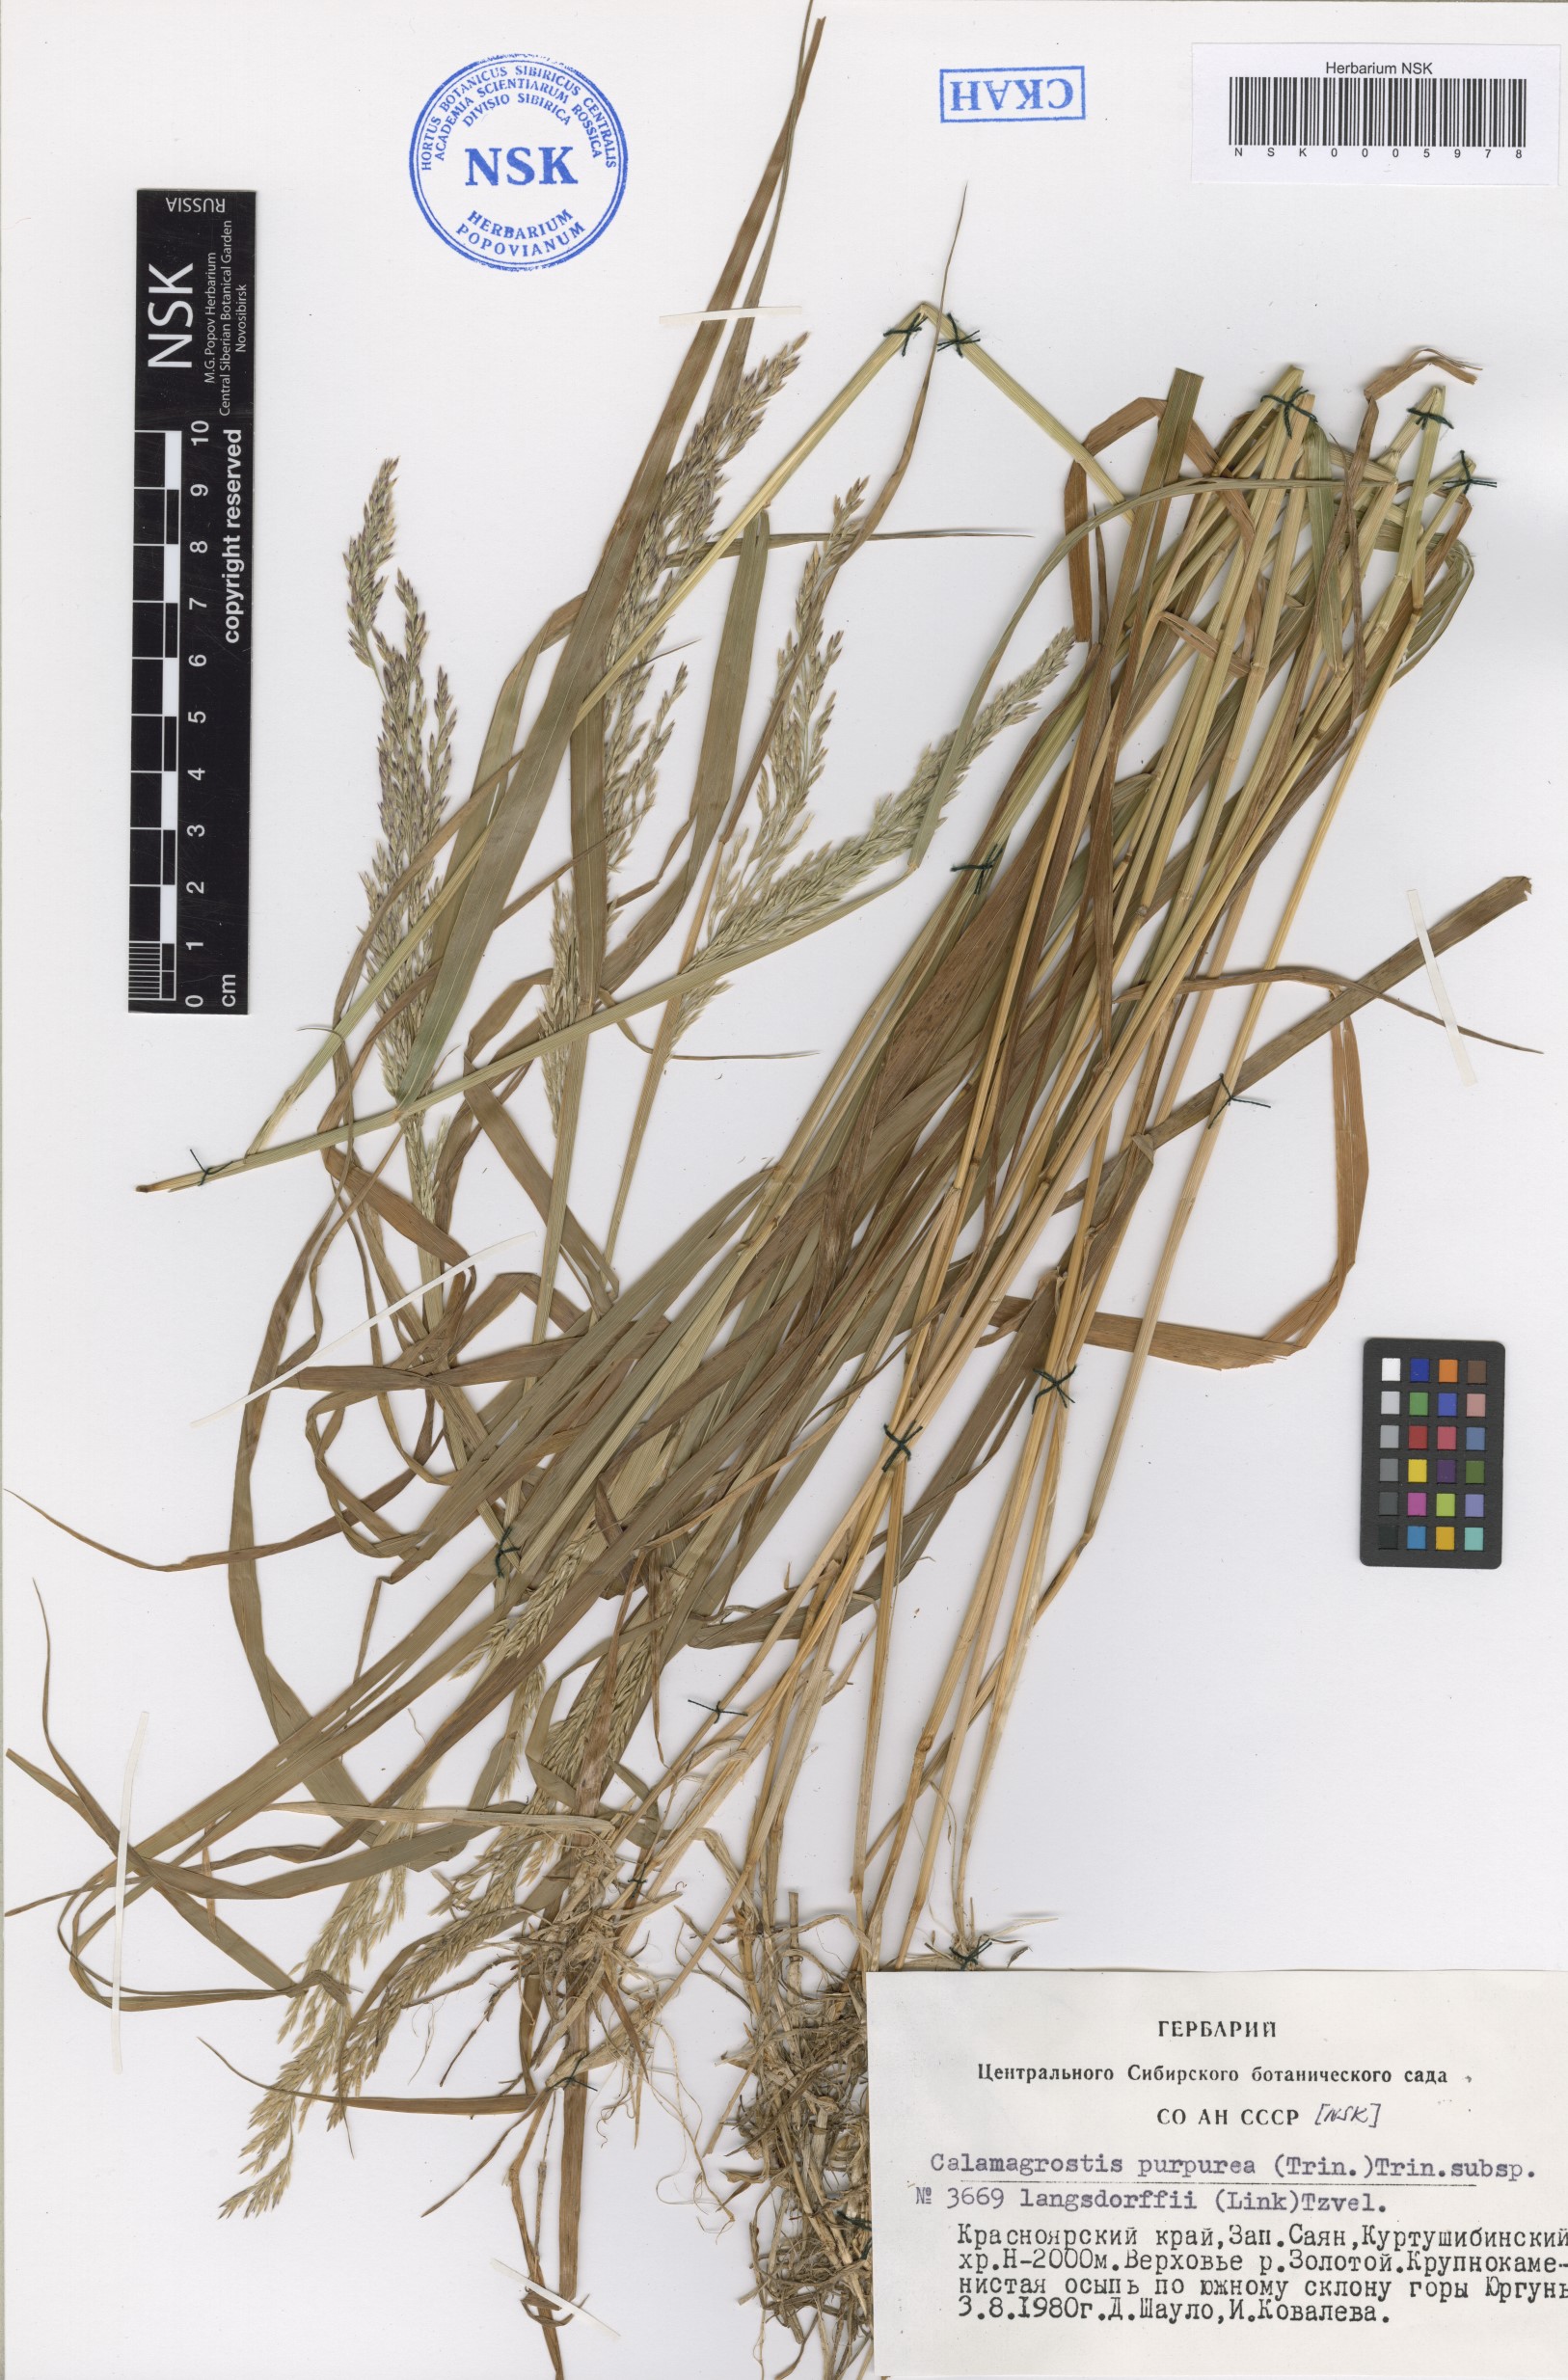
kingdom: Plantae
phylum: Tracheophyta
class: Liliopsida
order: Poales
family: Poaceae
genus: Calamagrostis
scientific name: Calamagrostis purpurea
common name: Scandinavian small-reed
